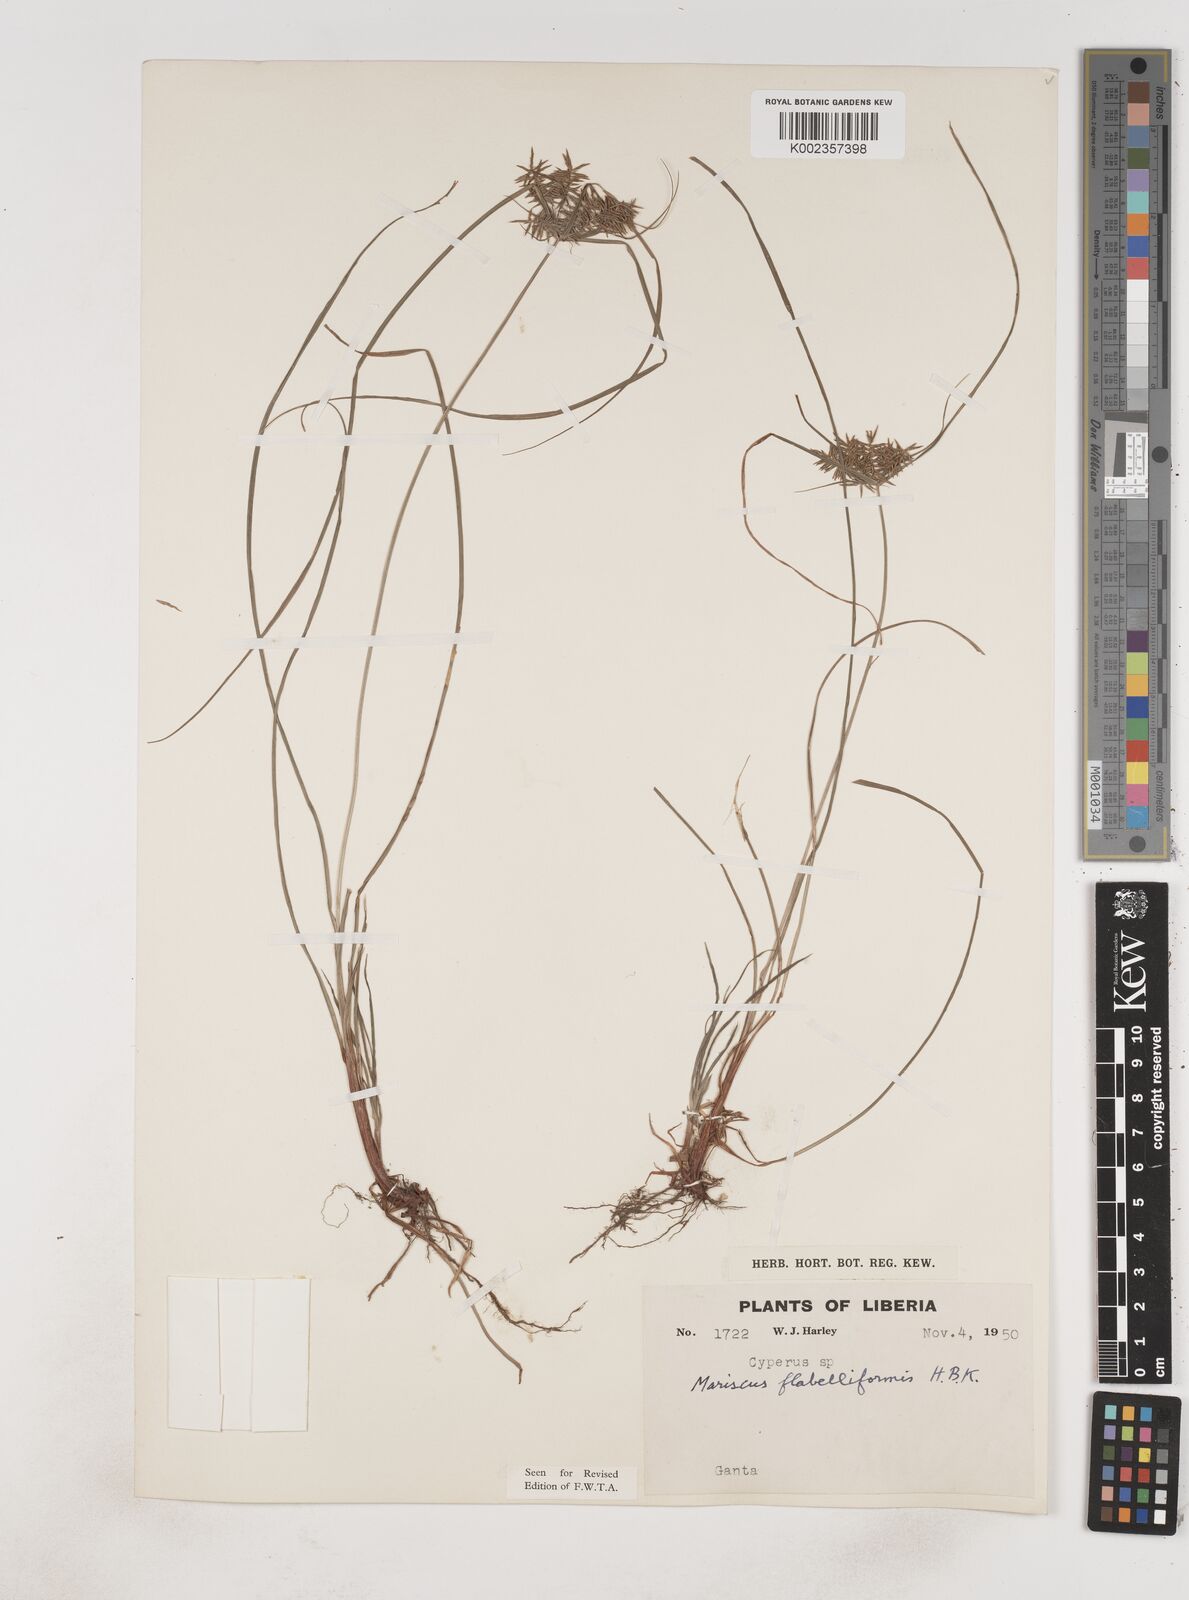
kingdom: Plantae
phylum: Tracheophyta
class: Liliopsida
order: Poales
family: Cyperaceae
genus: Cyperus
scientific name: Cyperus tenuis
